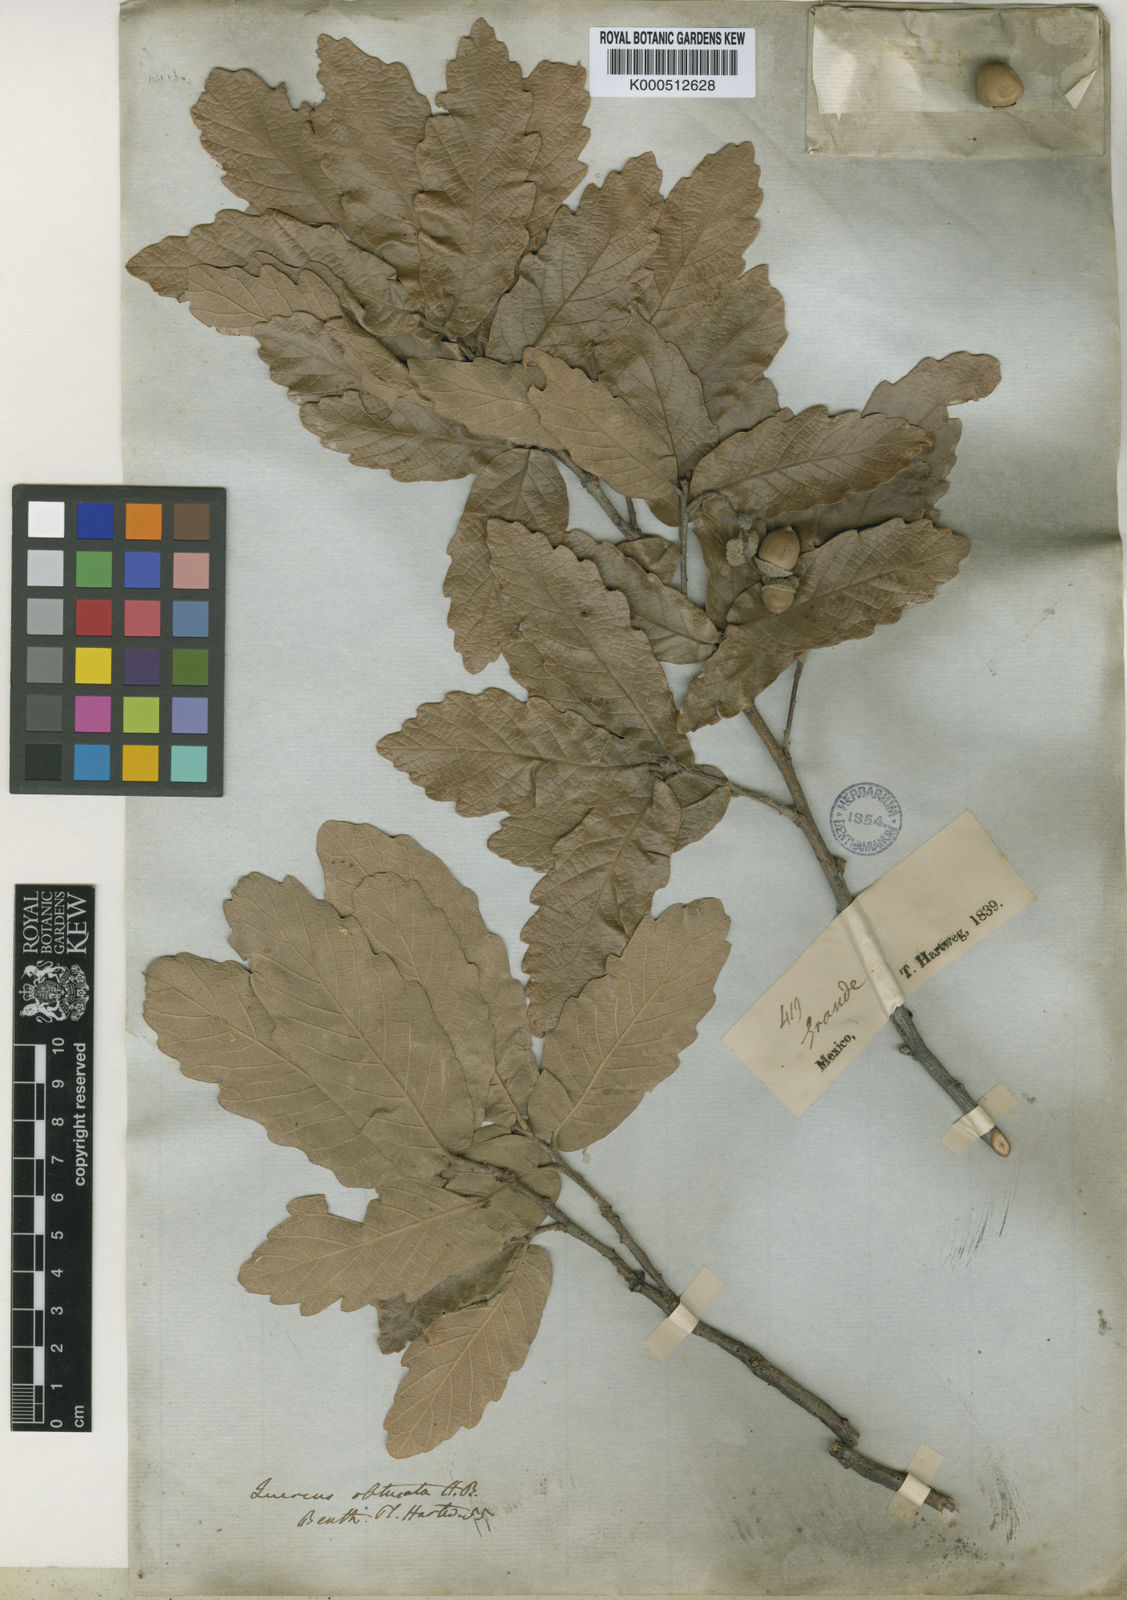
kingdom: Plantae
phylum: Tracheophyta
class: Magnoliopsida
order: Fagales
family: Fagaceae
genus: Quercus
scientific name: Quercus laeta
